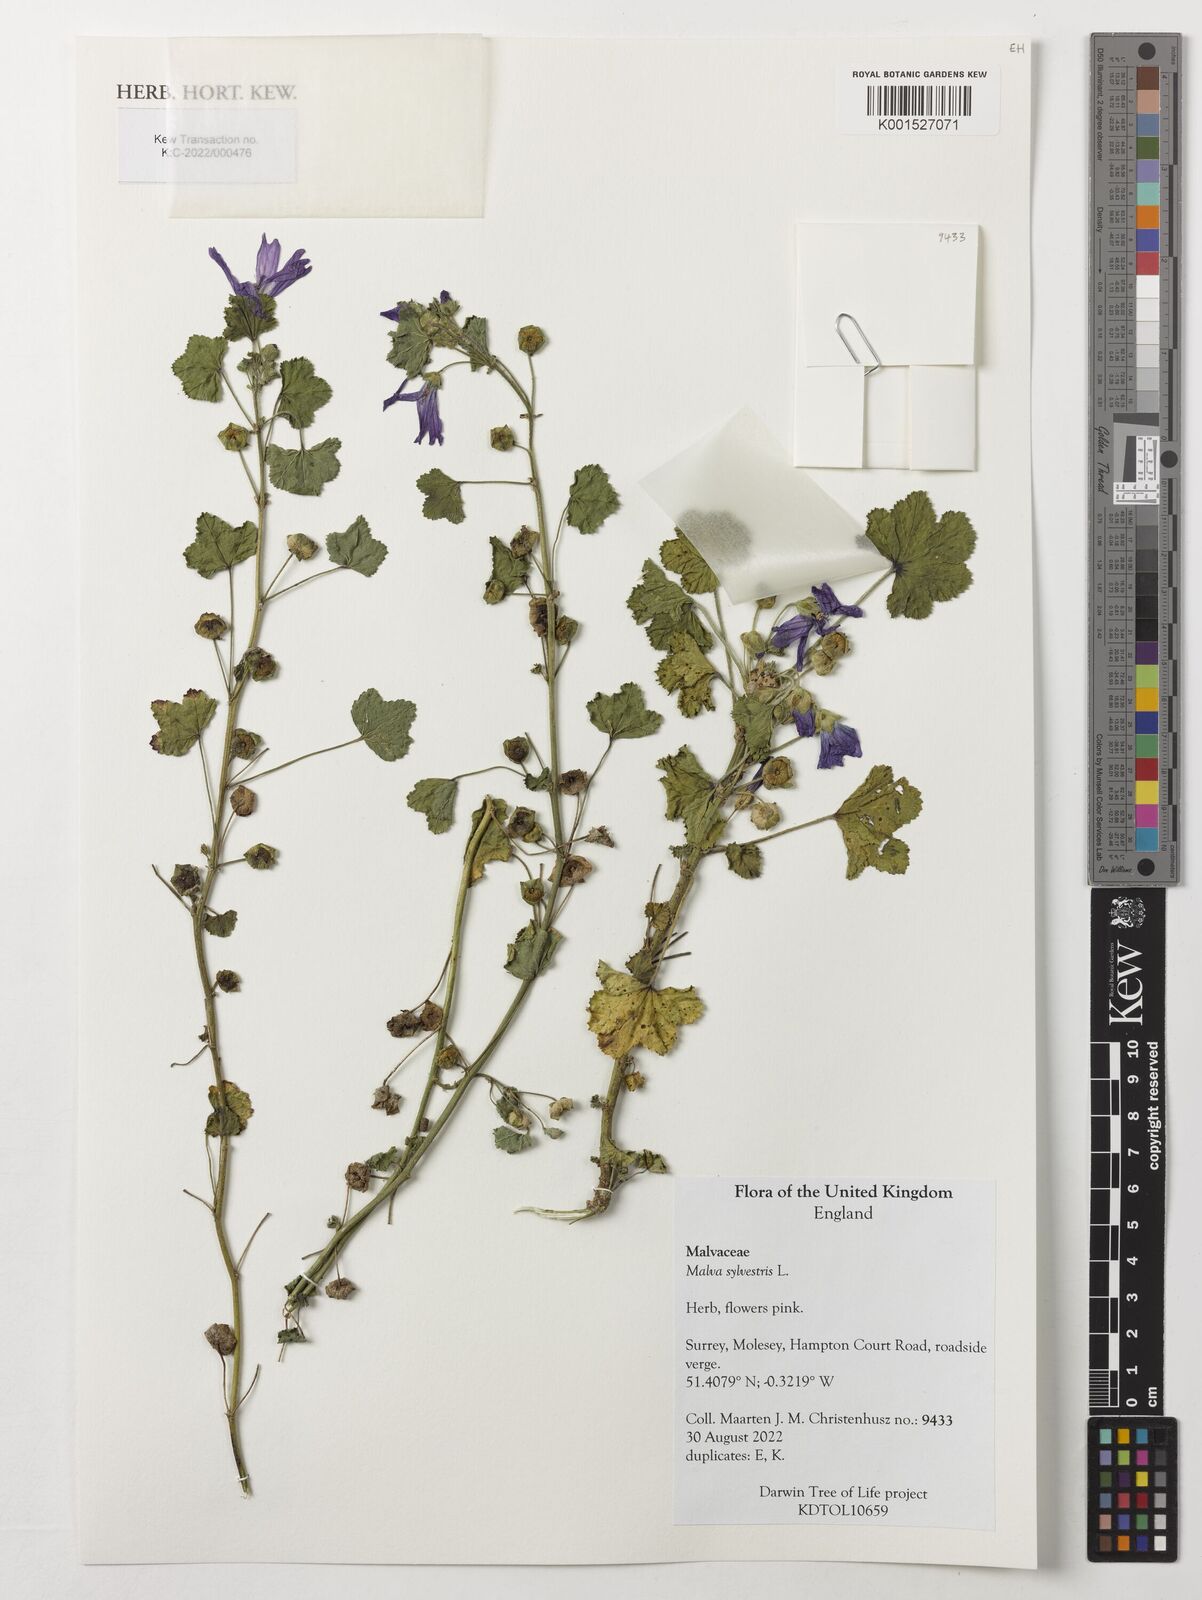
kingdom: Plantae
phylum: Tracheophyta
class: Magnoliopsida
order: Malvales
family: Malvaceae
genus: Malva
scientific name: Malva sylvestris
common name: Common mallow
